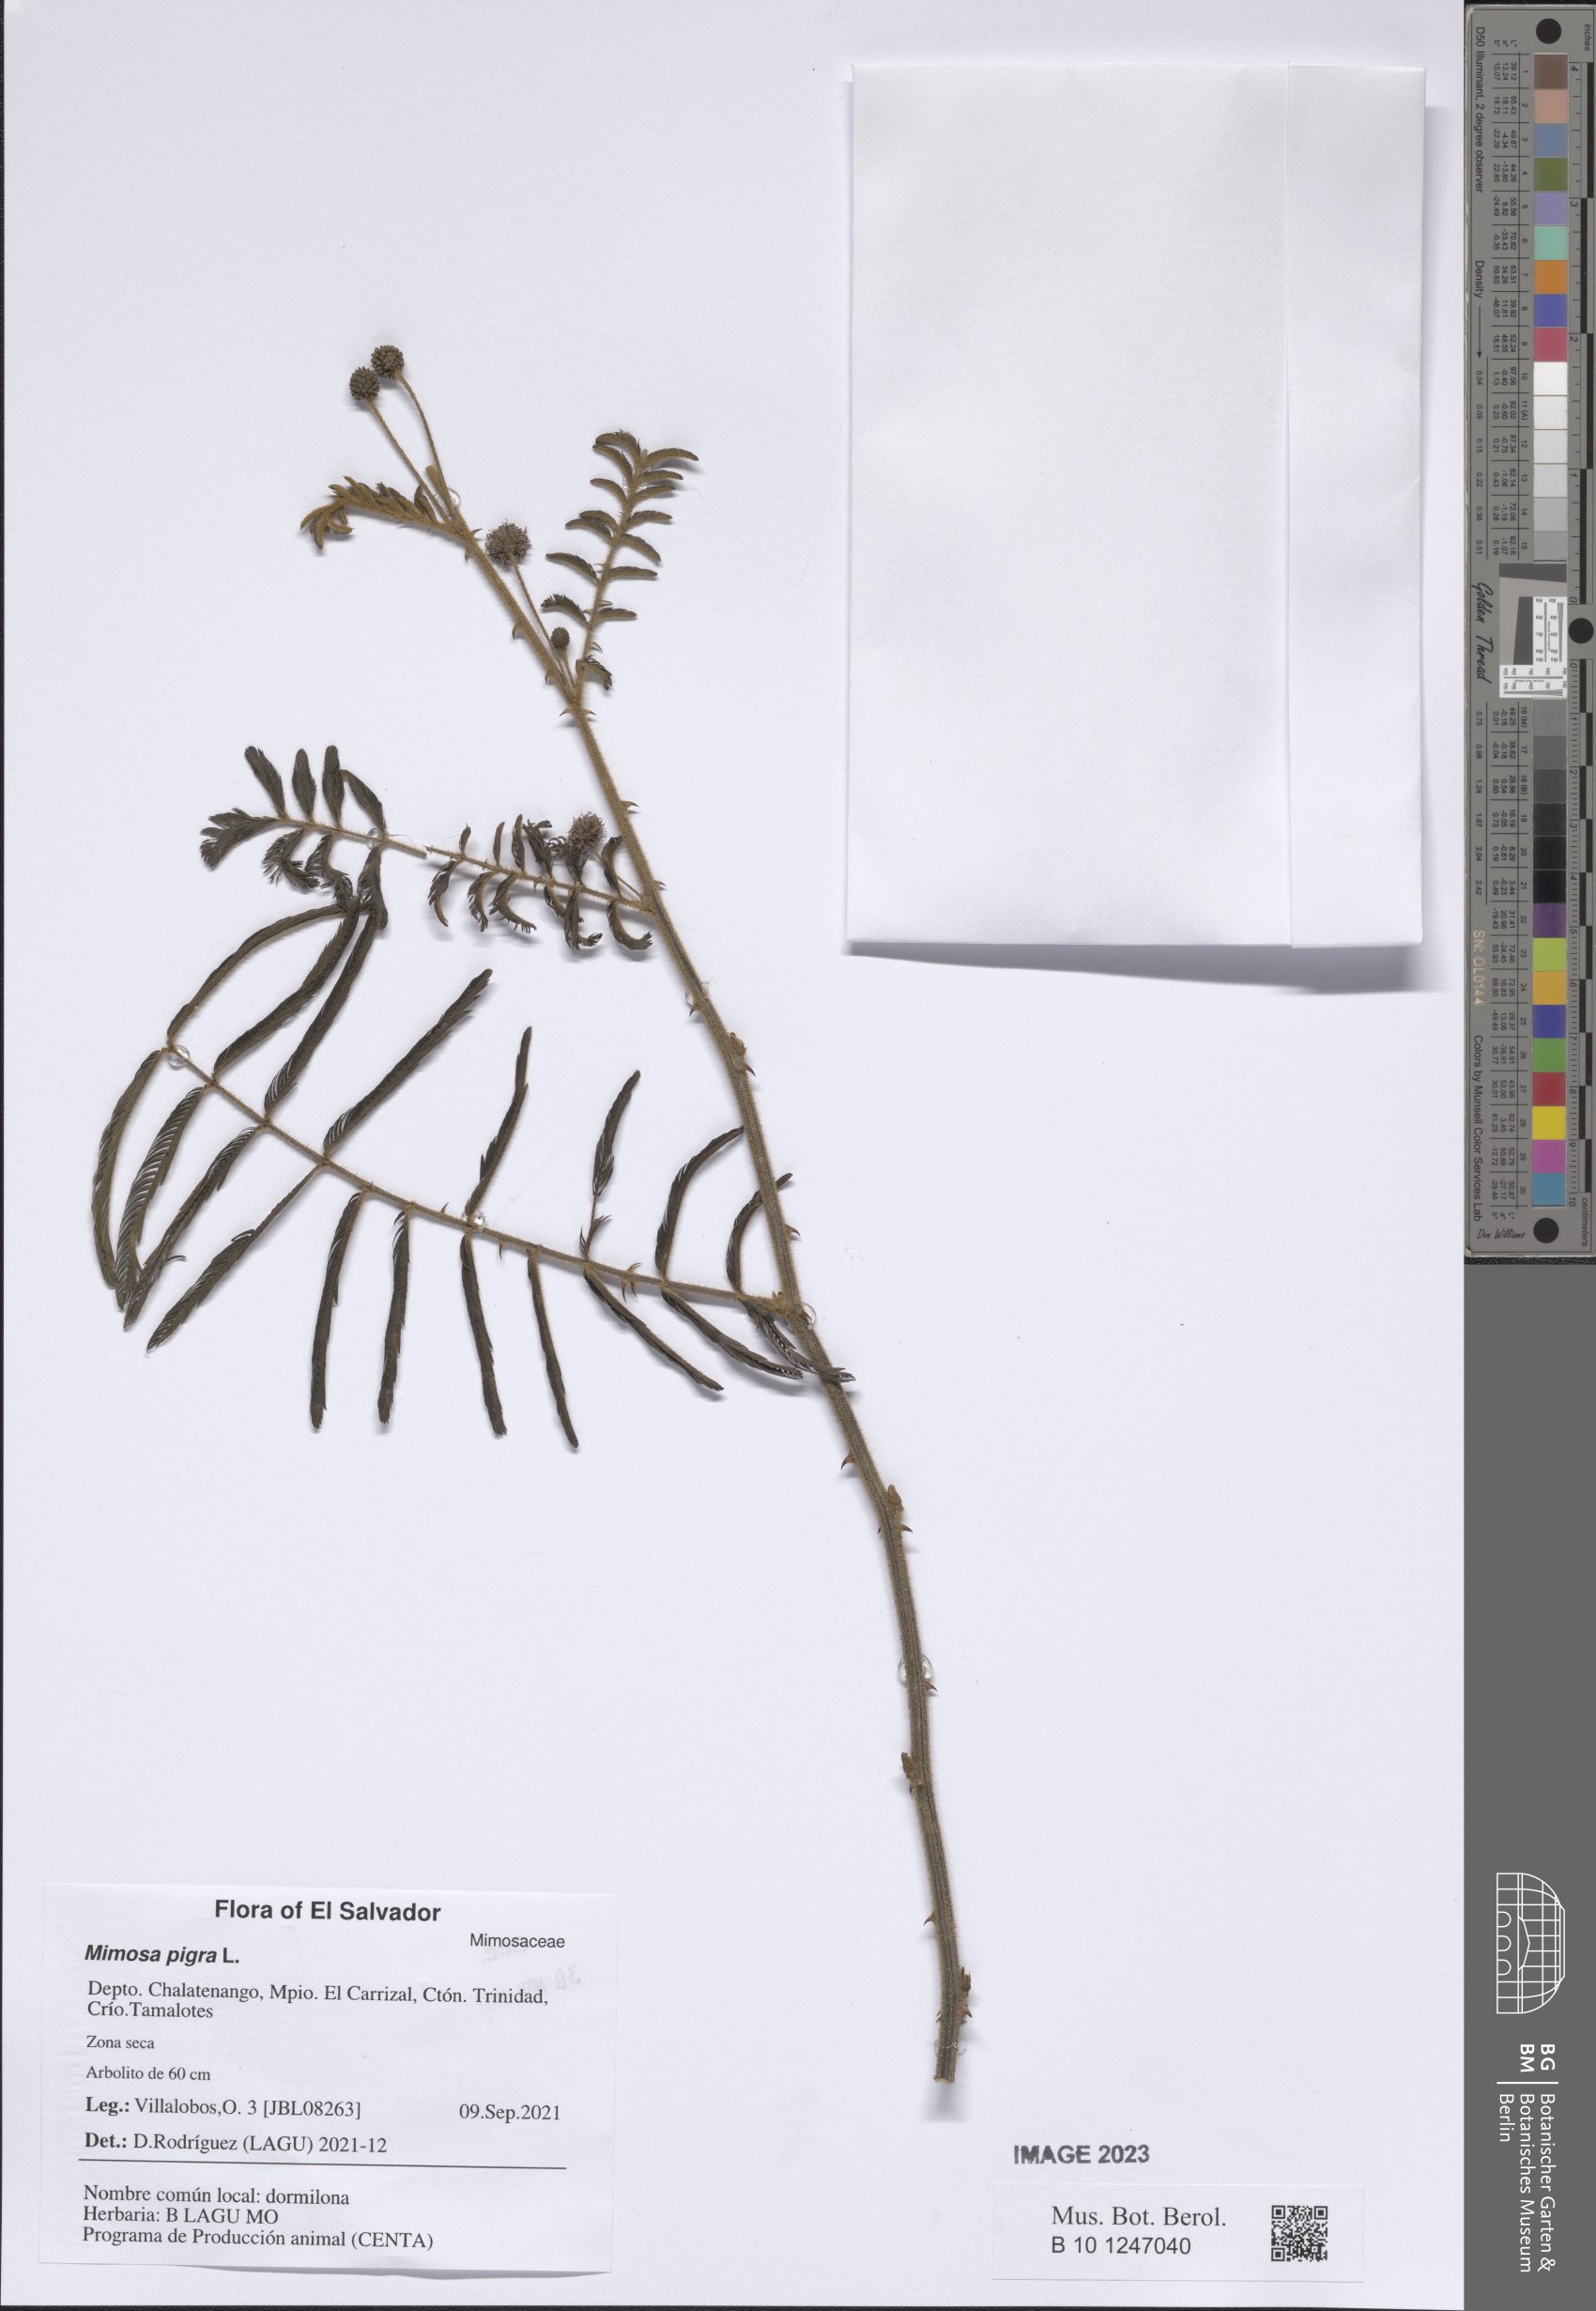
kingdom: Plantae
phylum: Tracheophyta
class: Magnoliopsida
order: Fabales
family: Fabaceae
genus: Mimosa
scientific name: Mimosa pigra
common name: Black mimosa
